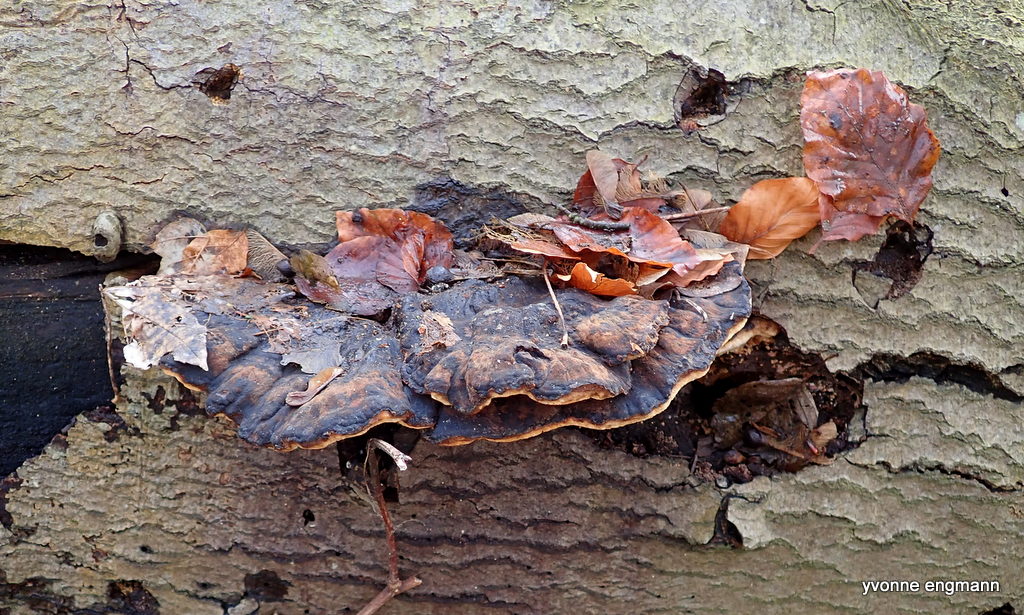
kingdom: Fungi
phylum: Basidiomycota
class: Agaricomycetes
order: Polyporales
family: Ischnodermataceae
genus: Ischnoderma
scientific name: Ischnoderma resinosum
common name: løv-tjæreporesvamp
